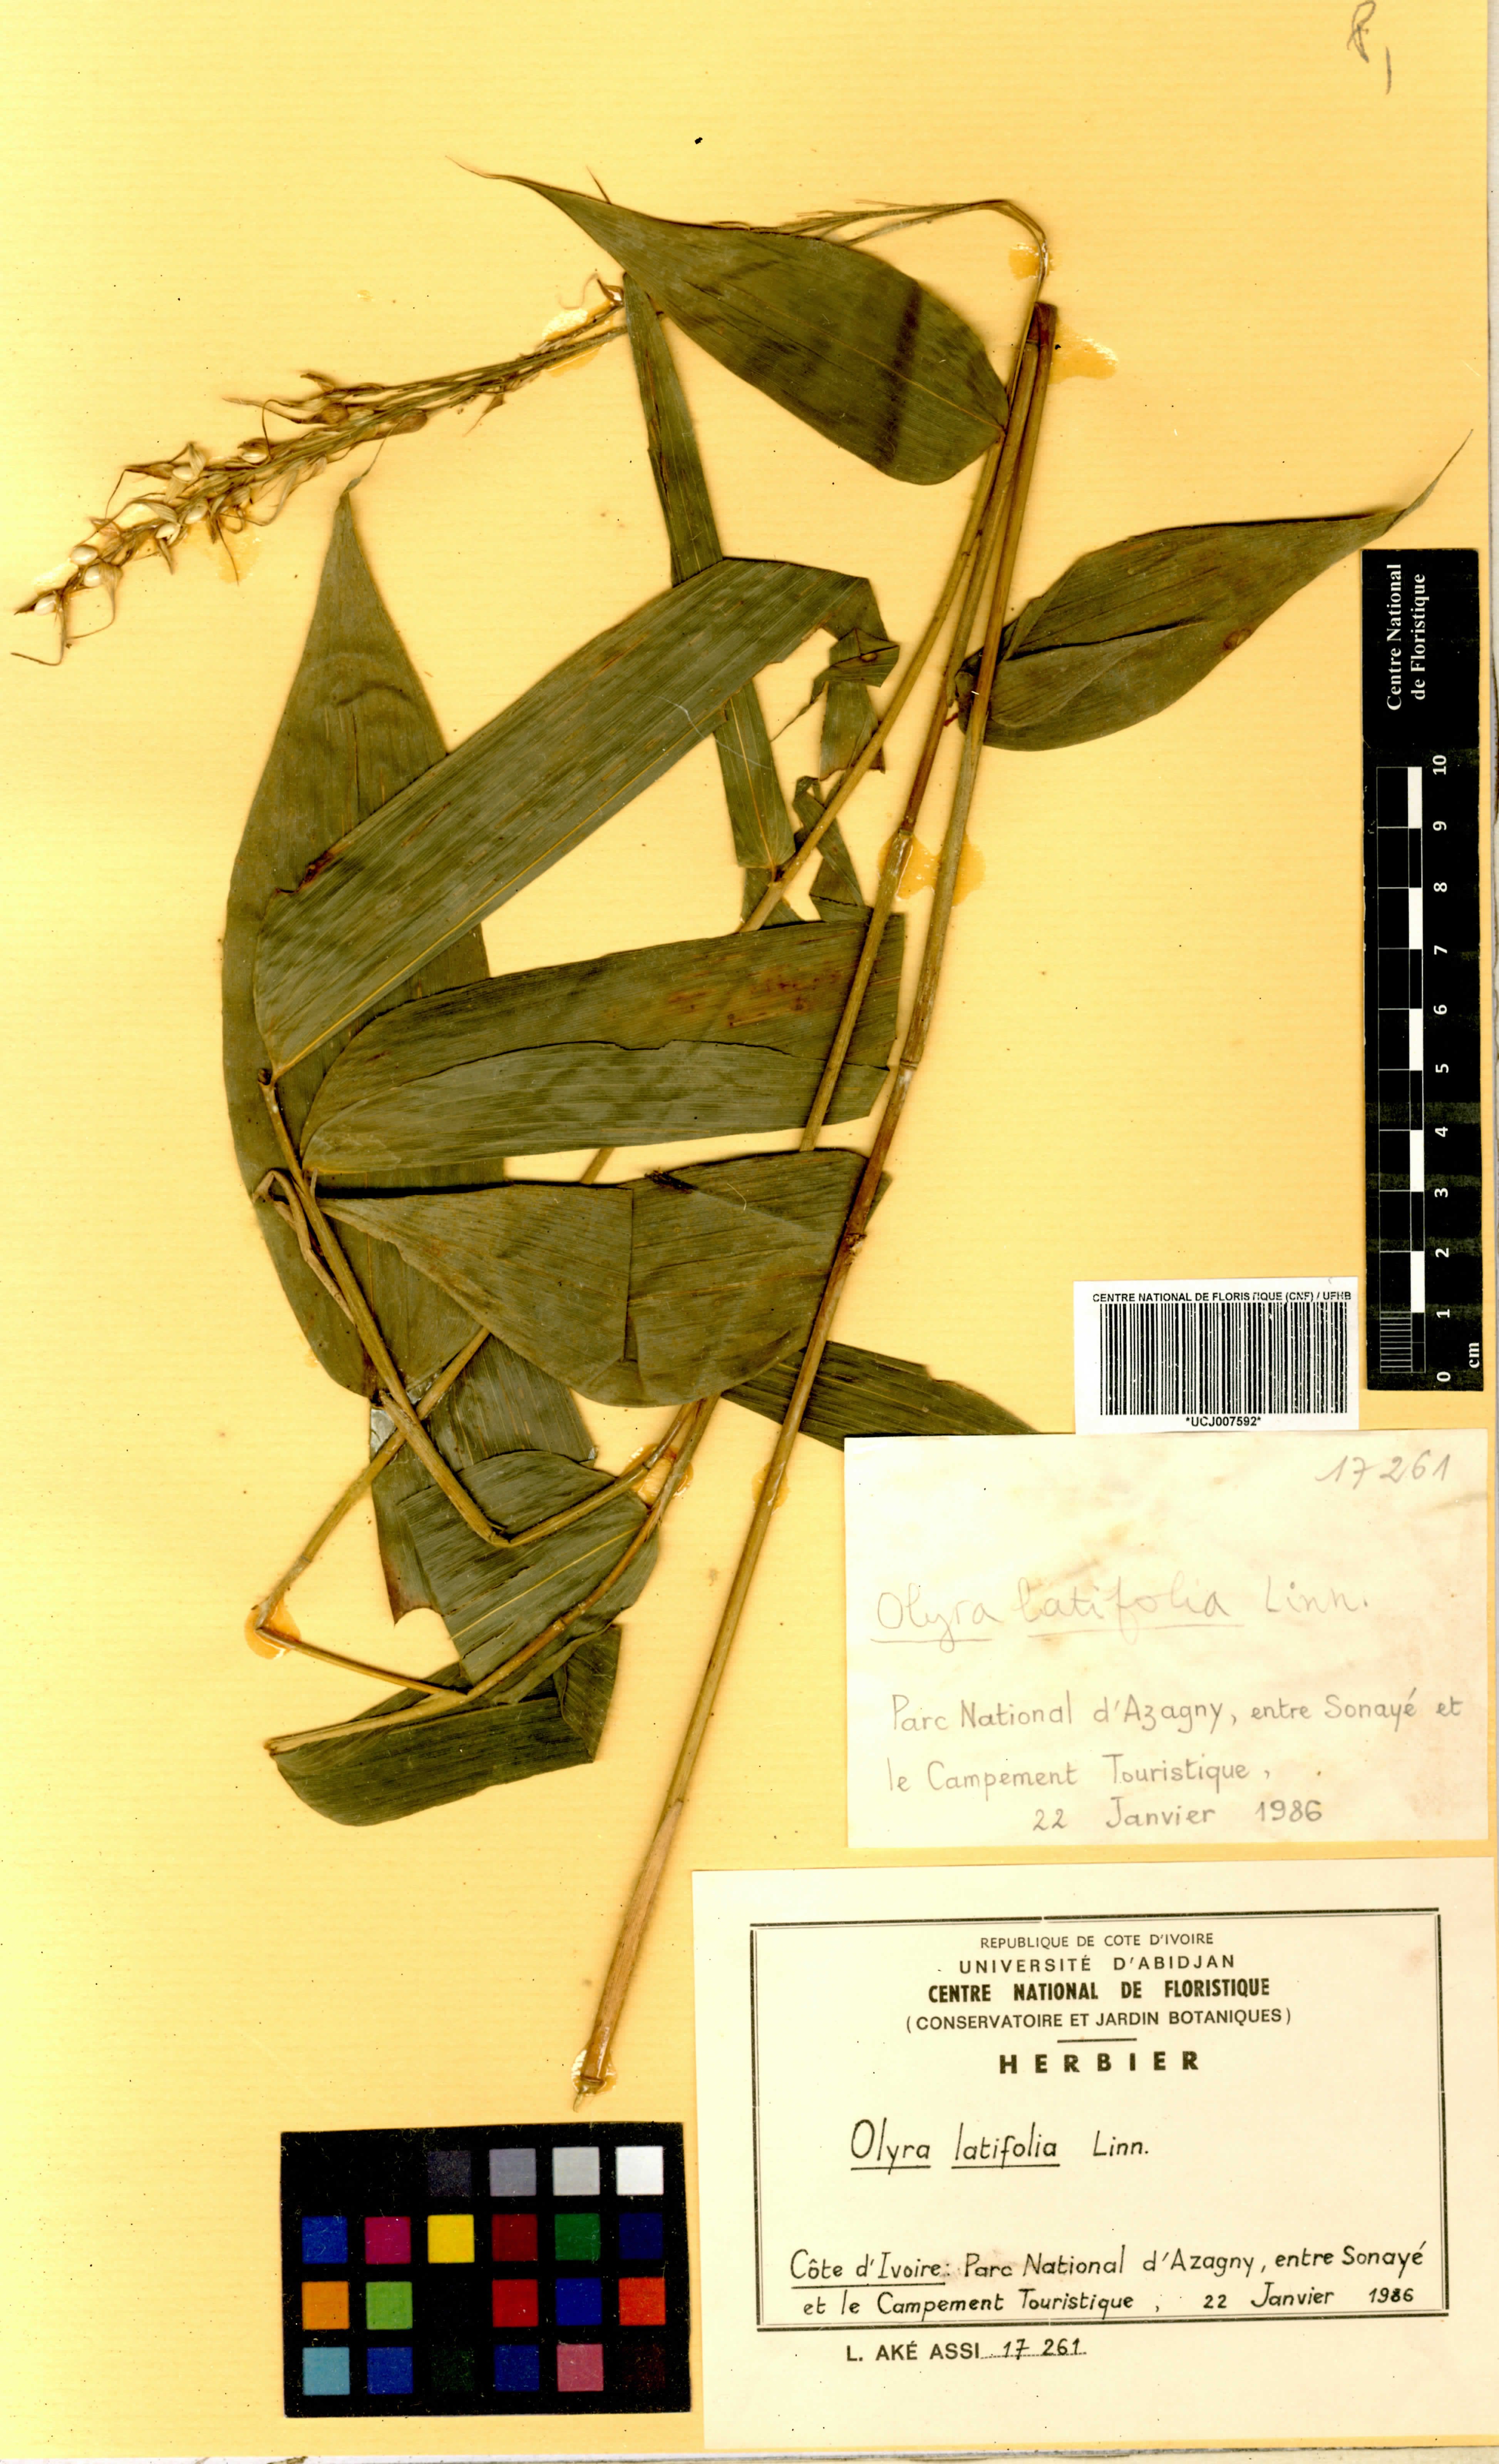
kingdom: Plantae
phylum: Tracheophyta
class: Liliopsida
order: Poales
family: Poaceae
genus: Olyra
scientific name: Olyra latifolia
